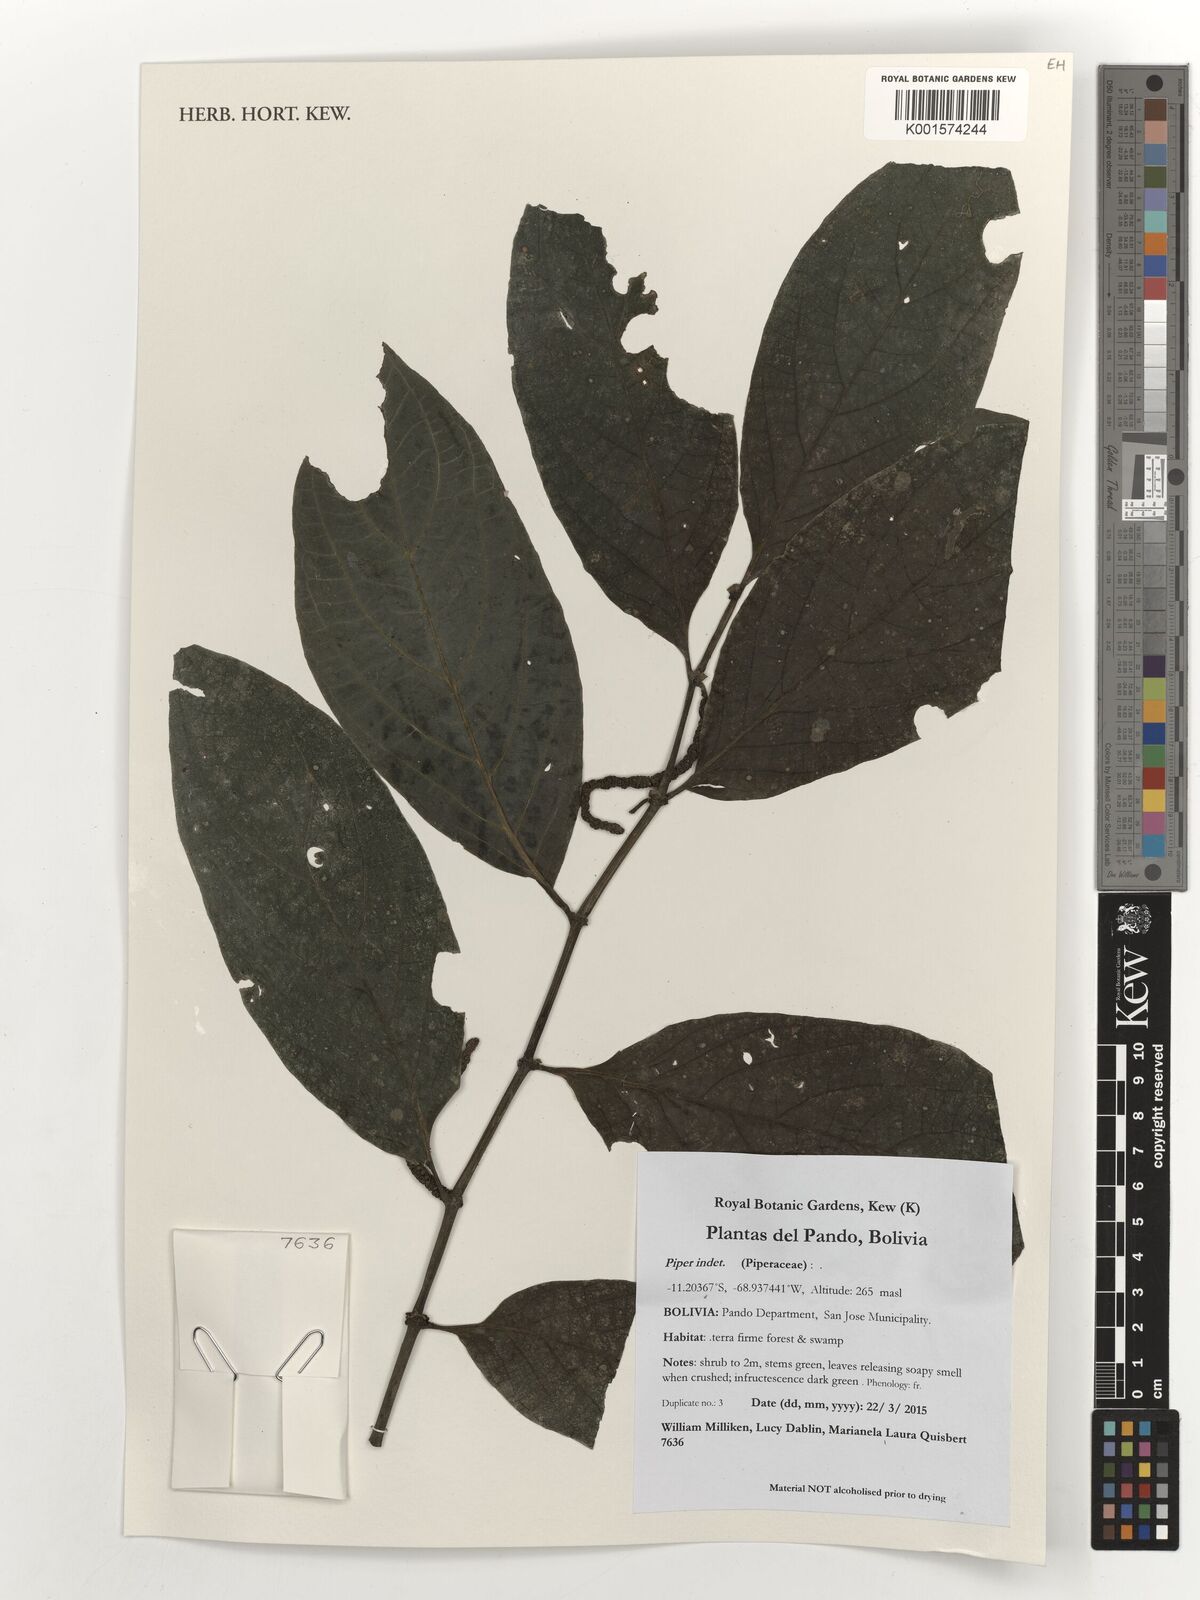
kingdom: Plantae
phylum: Tracheophyta
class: Magnoliopsida
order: Piperales
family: Piperaceae
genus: Piper
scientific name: Piper
